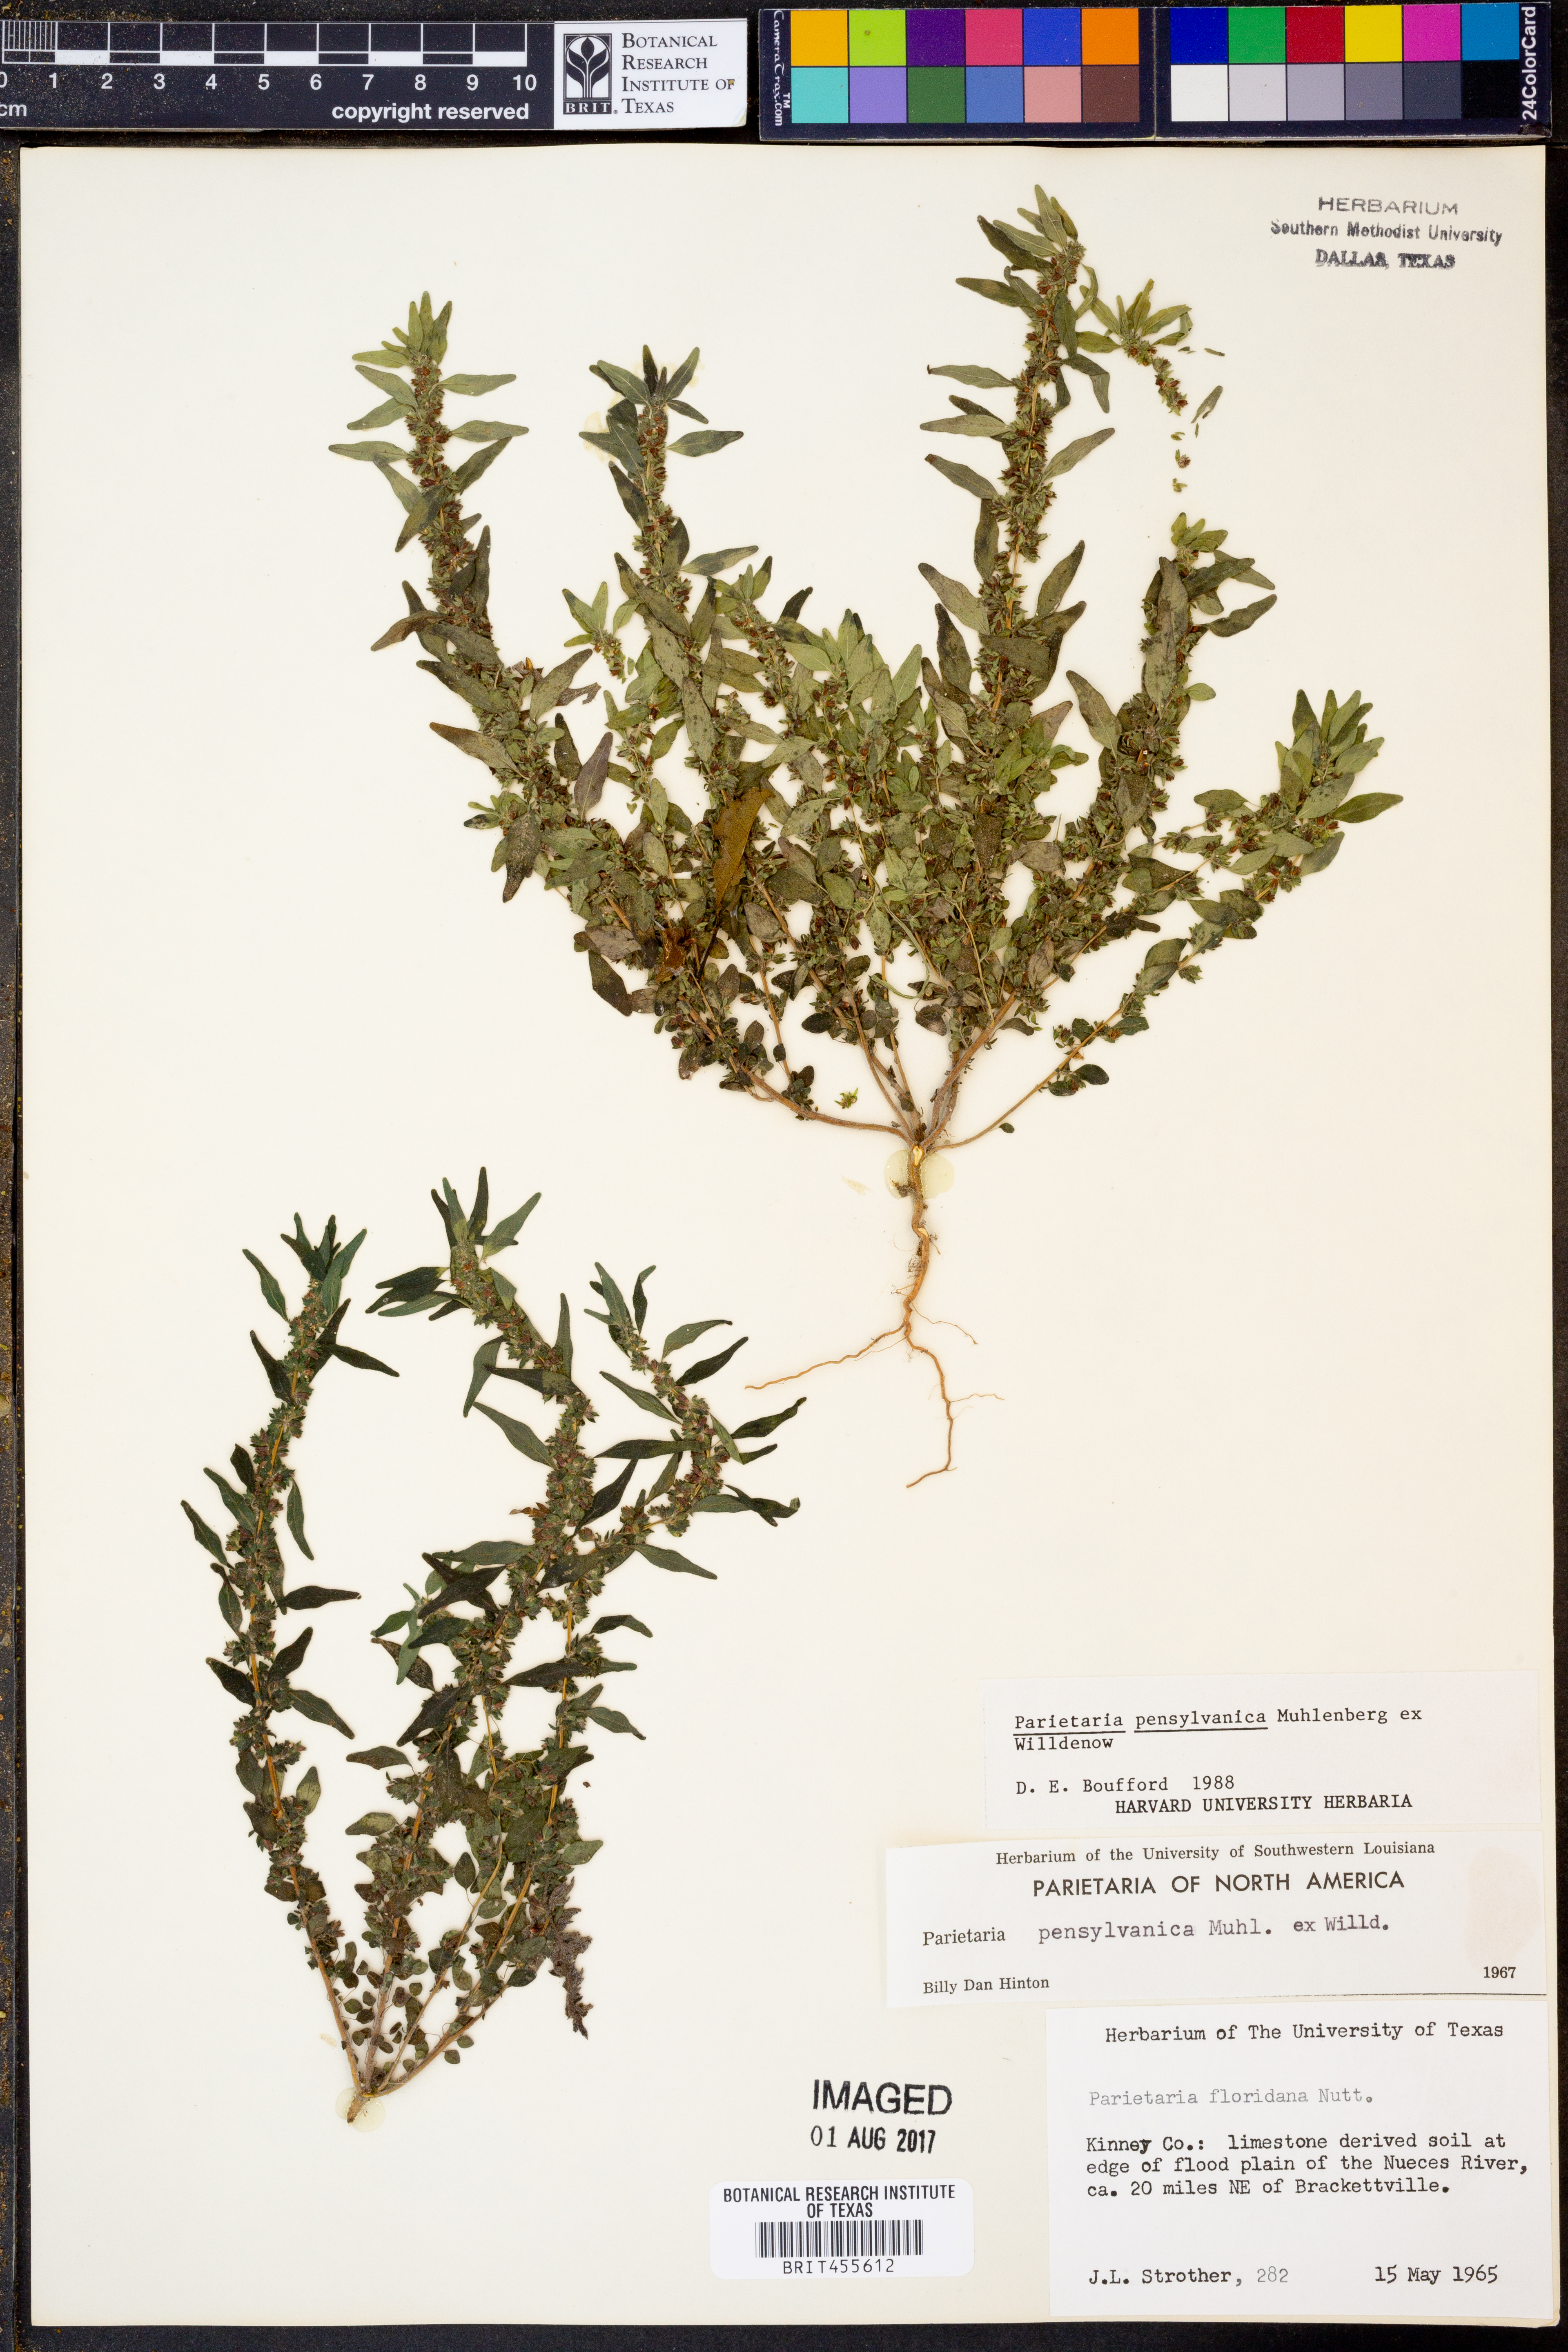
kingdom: Plantae
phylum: Tracheophyta
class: Magnoliopsida
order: Rosales
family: Urticaceae
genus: Parietaria
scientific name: Parietaria pensylvanica
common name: Pennsylvania pellitory
